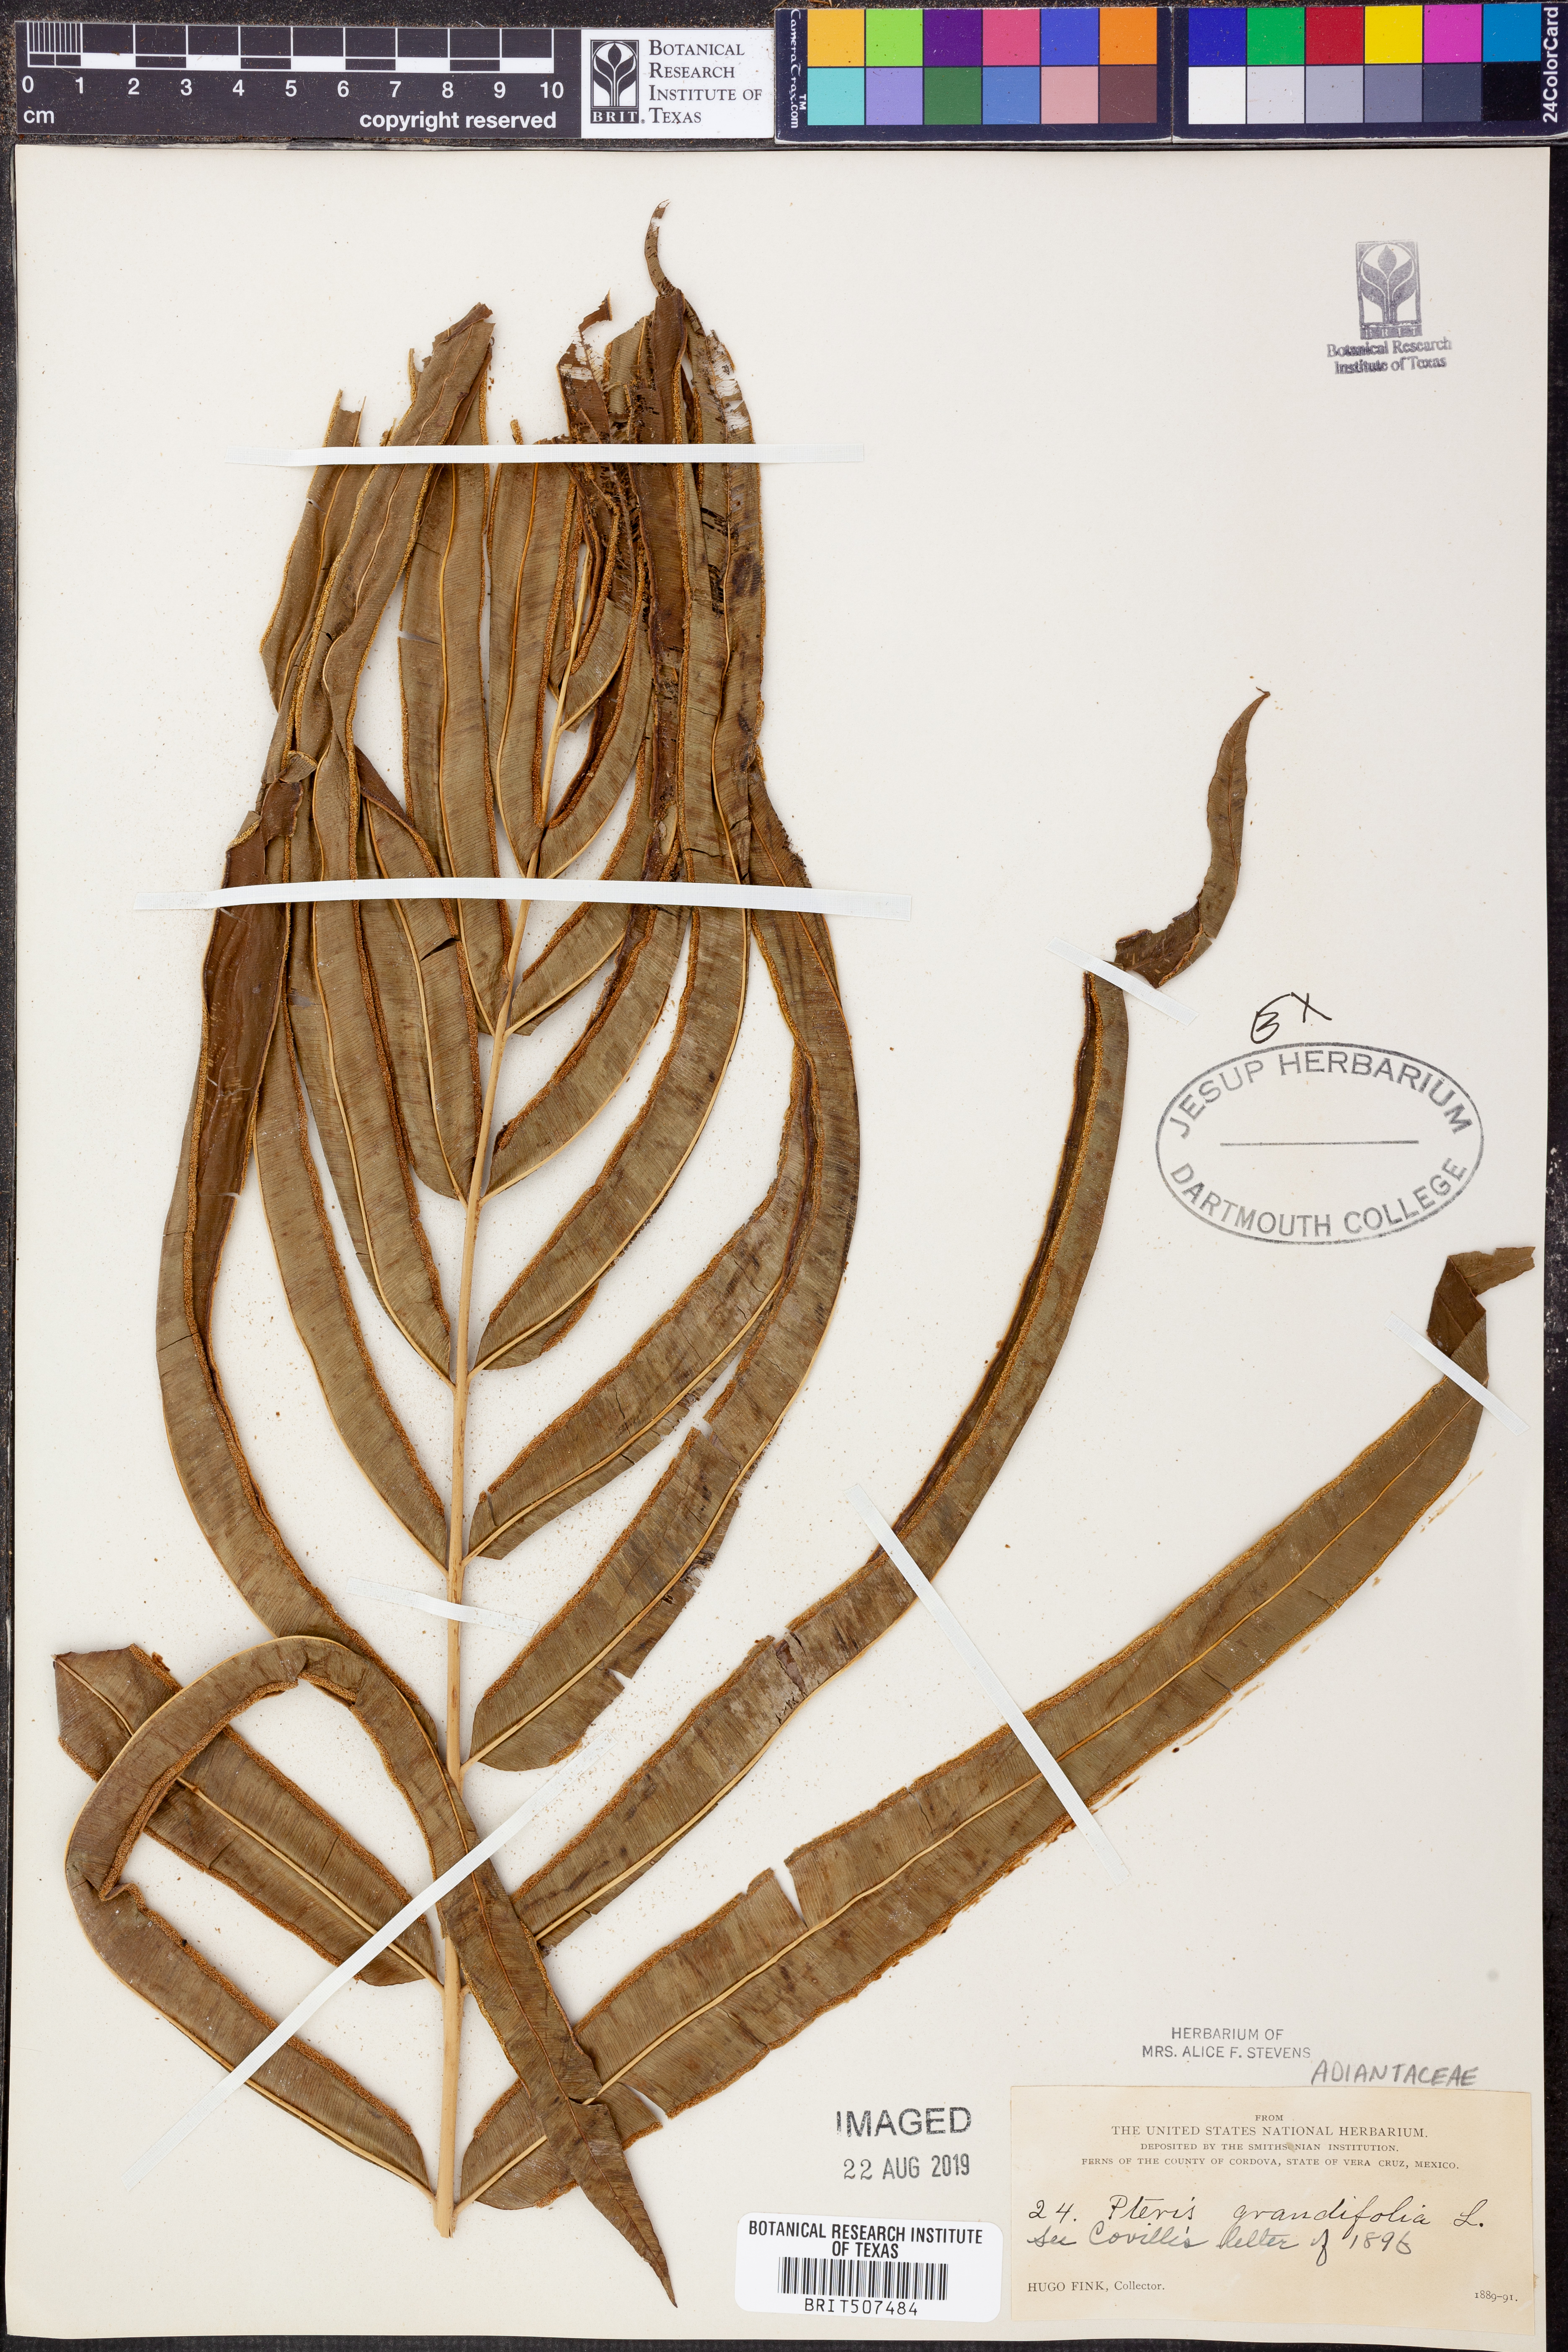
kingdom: Plantae
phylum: Tracheophyta
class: Polypodiopsida
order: Polypodiales
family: Pteridaceae
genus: Pteris
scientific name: Pteris grandifolia
